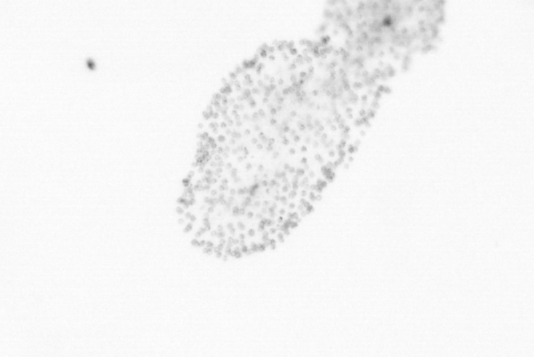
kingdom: Chromista
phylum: Ochrophyta
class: Bacillariophyceae
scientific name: Bacillariophyceae
